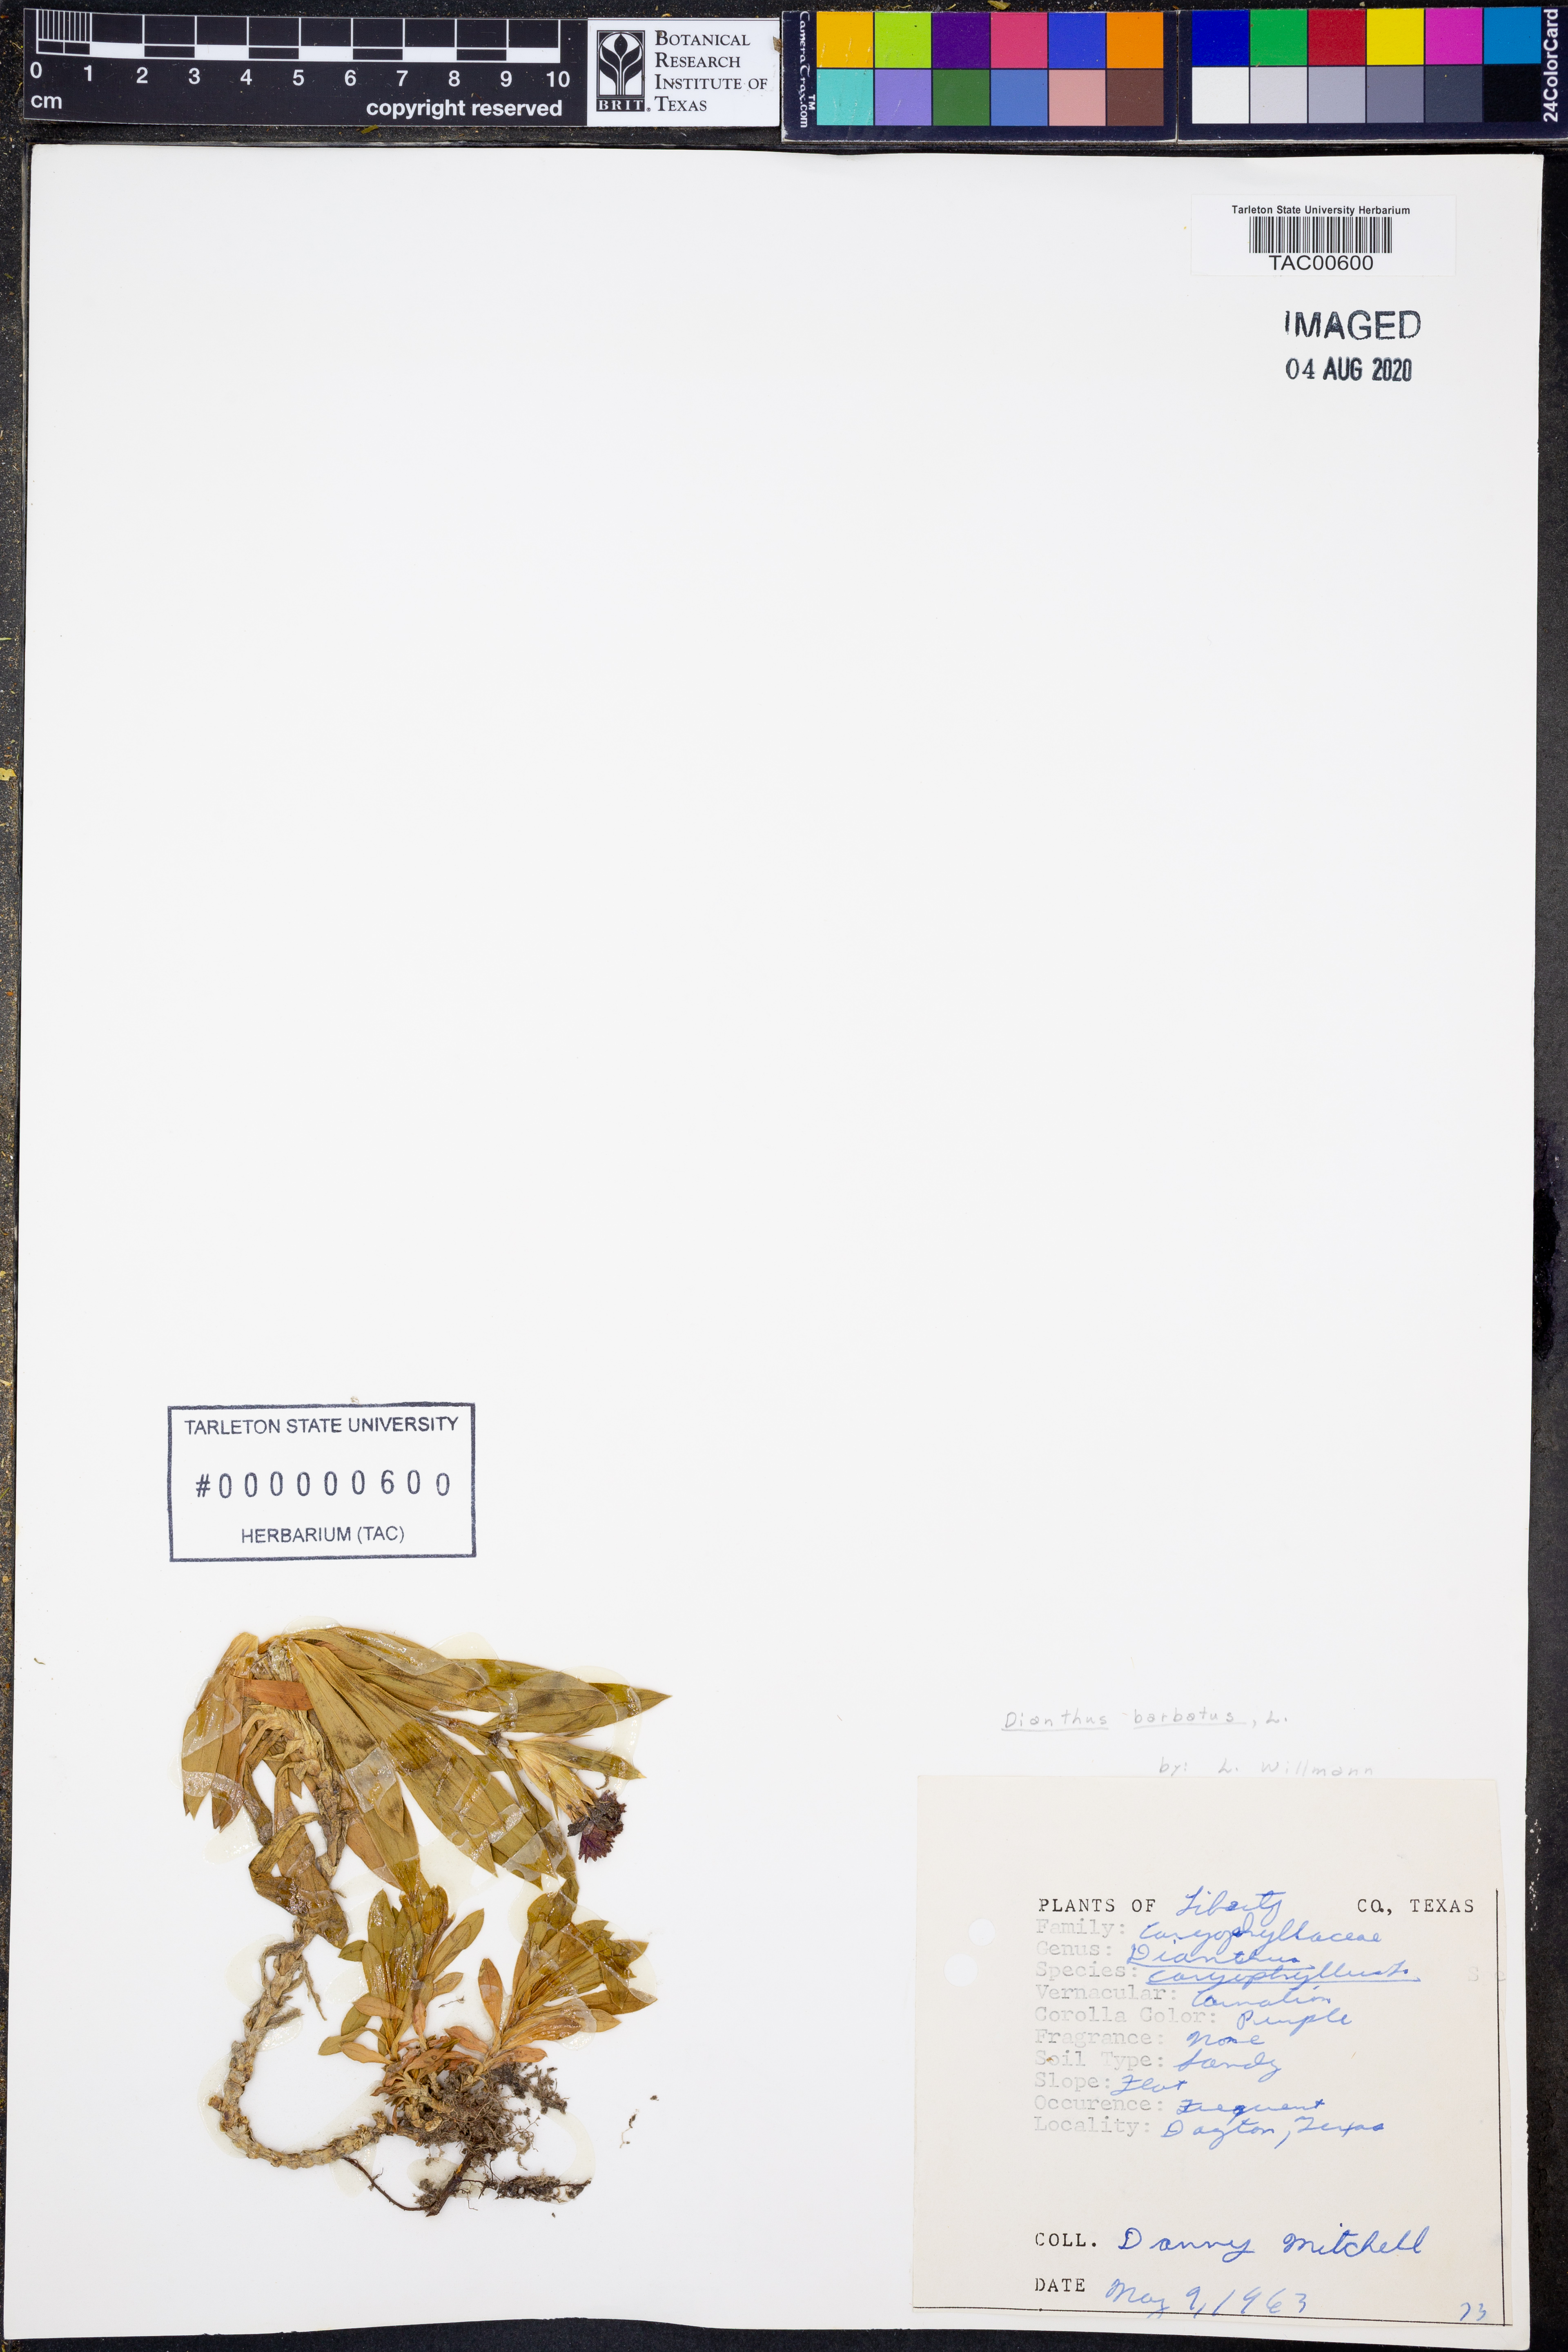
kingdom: Plantae
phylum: Tracheophyta
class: Magnoliopsida
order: Caryophyllales
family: Caryophyllaceae
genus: Dianthus
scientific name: Dianthus barbatus
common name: Sweet-william
